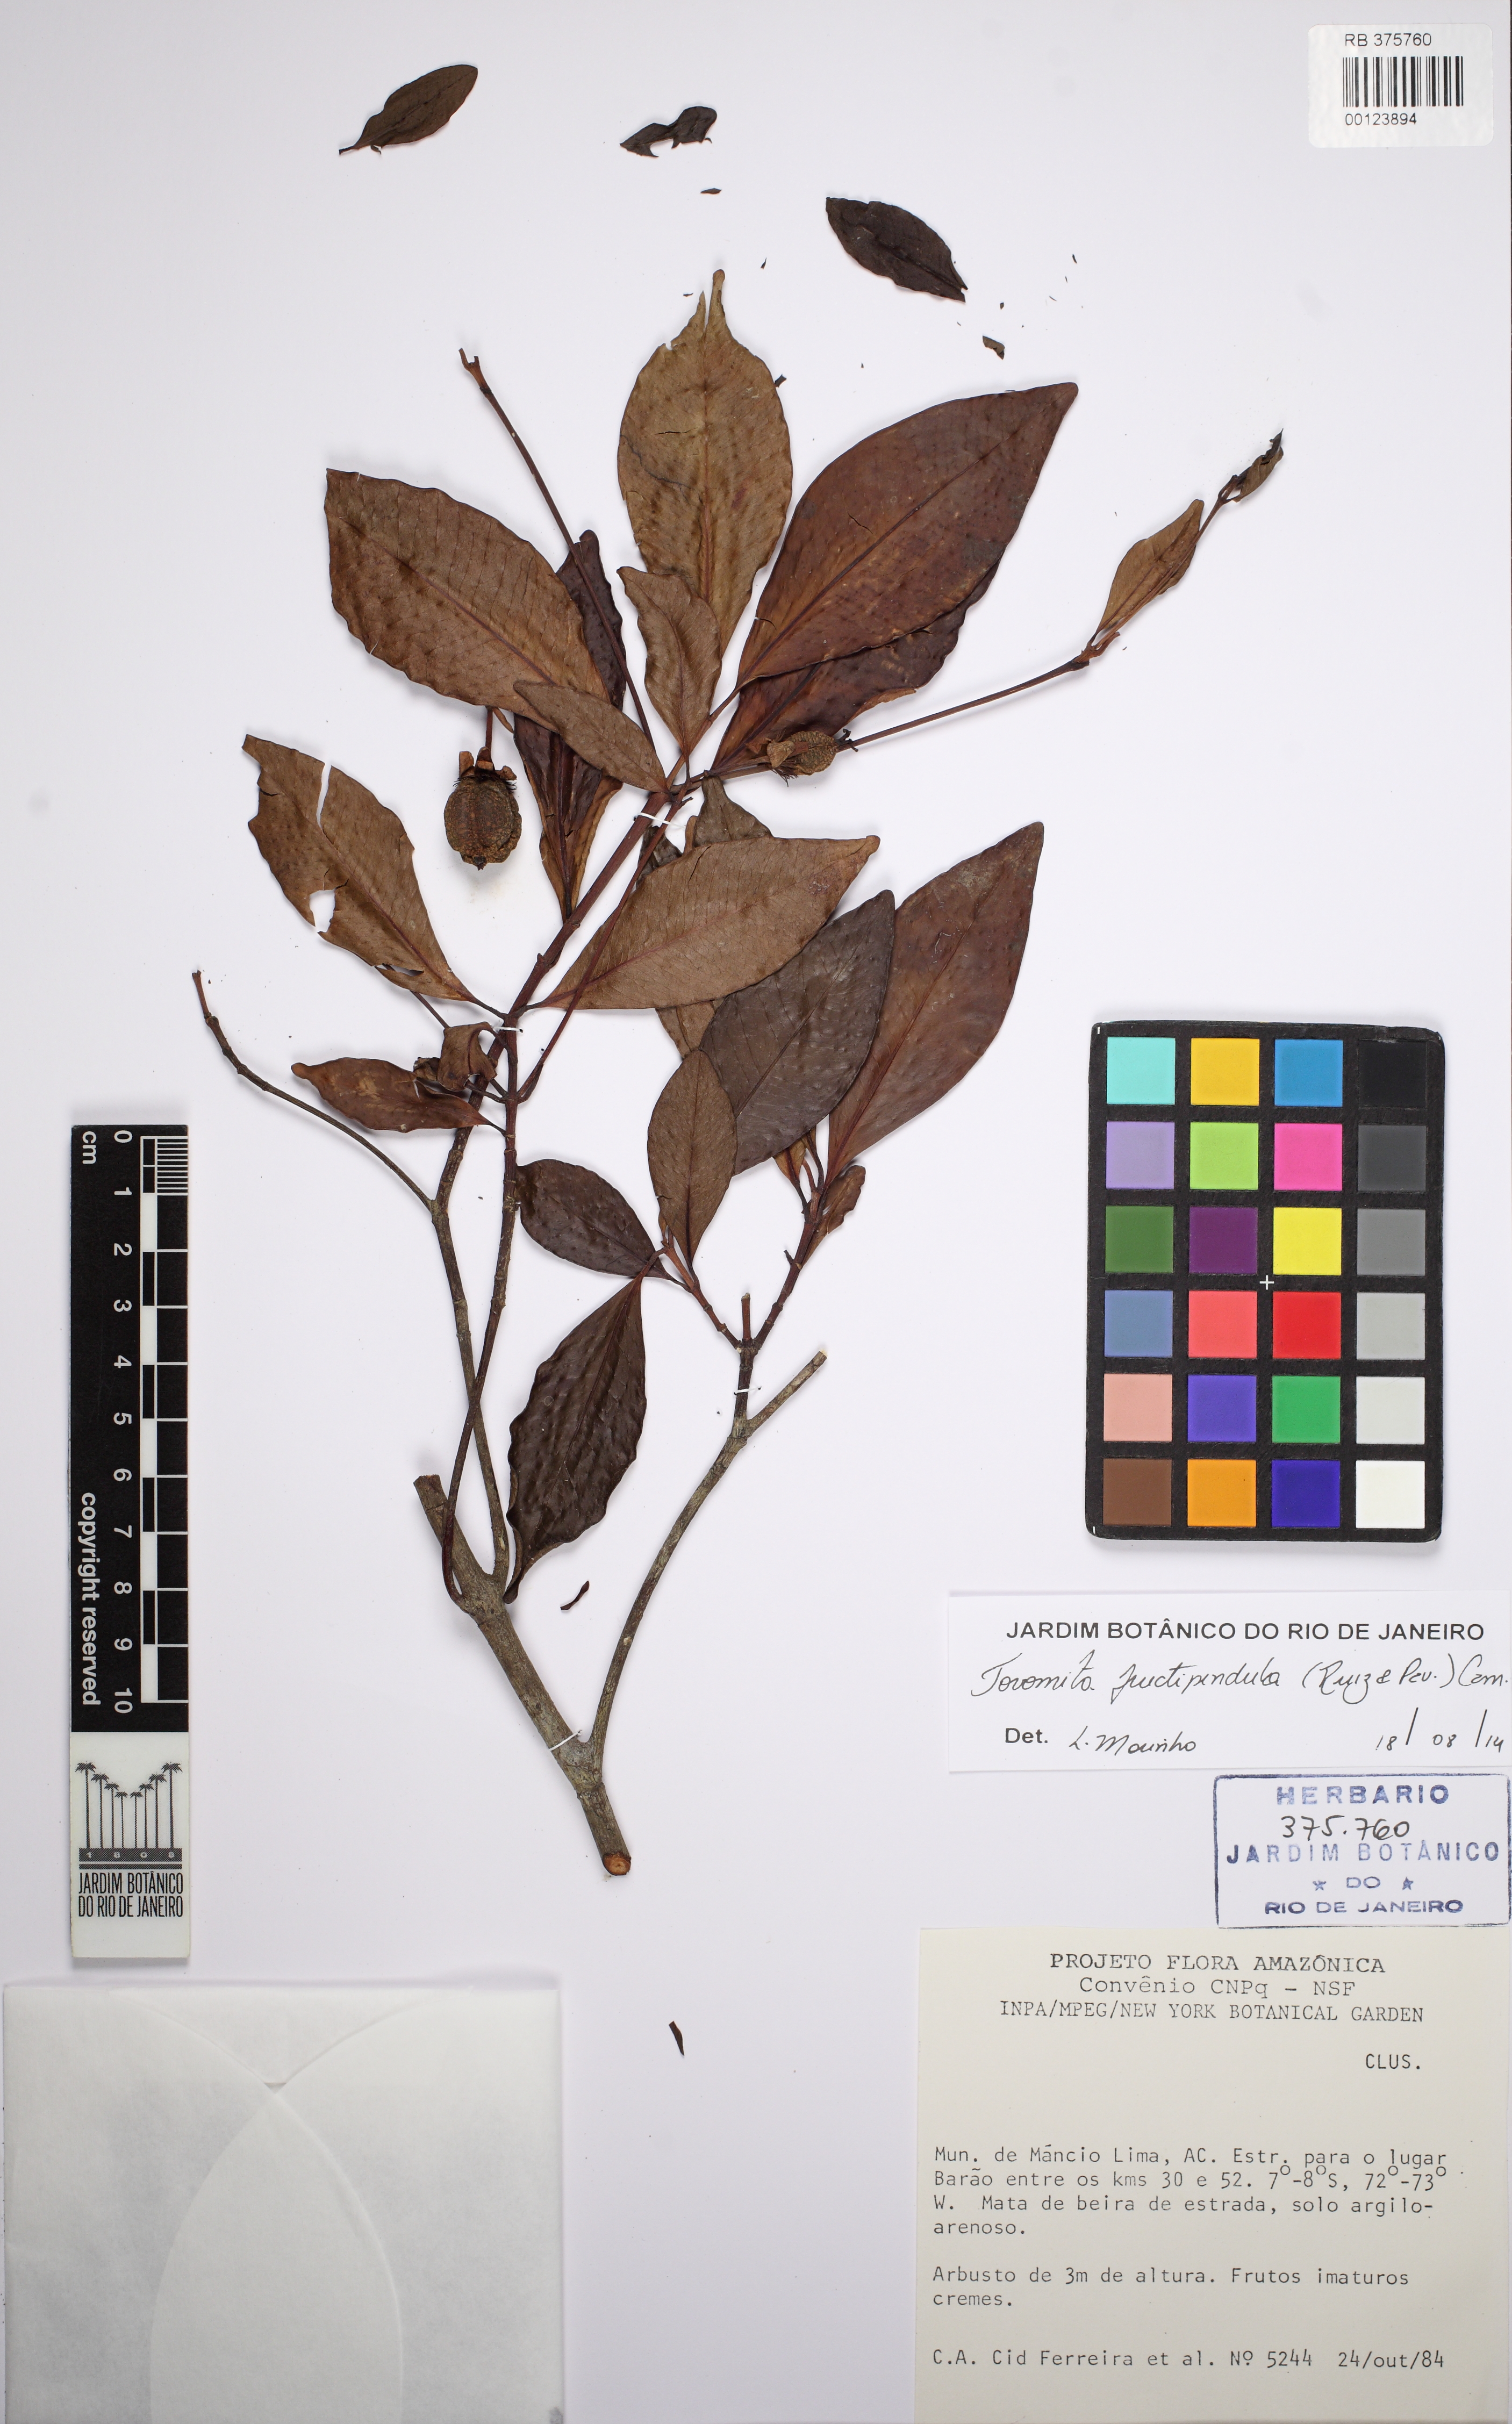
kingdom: Plantae
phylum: Tracheophyta
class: Magnoliopsida
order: Malpighiales
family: Clusiaceae
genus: Tovomita
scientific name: Tovomita fructipendula
